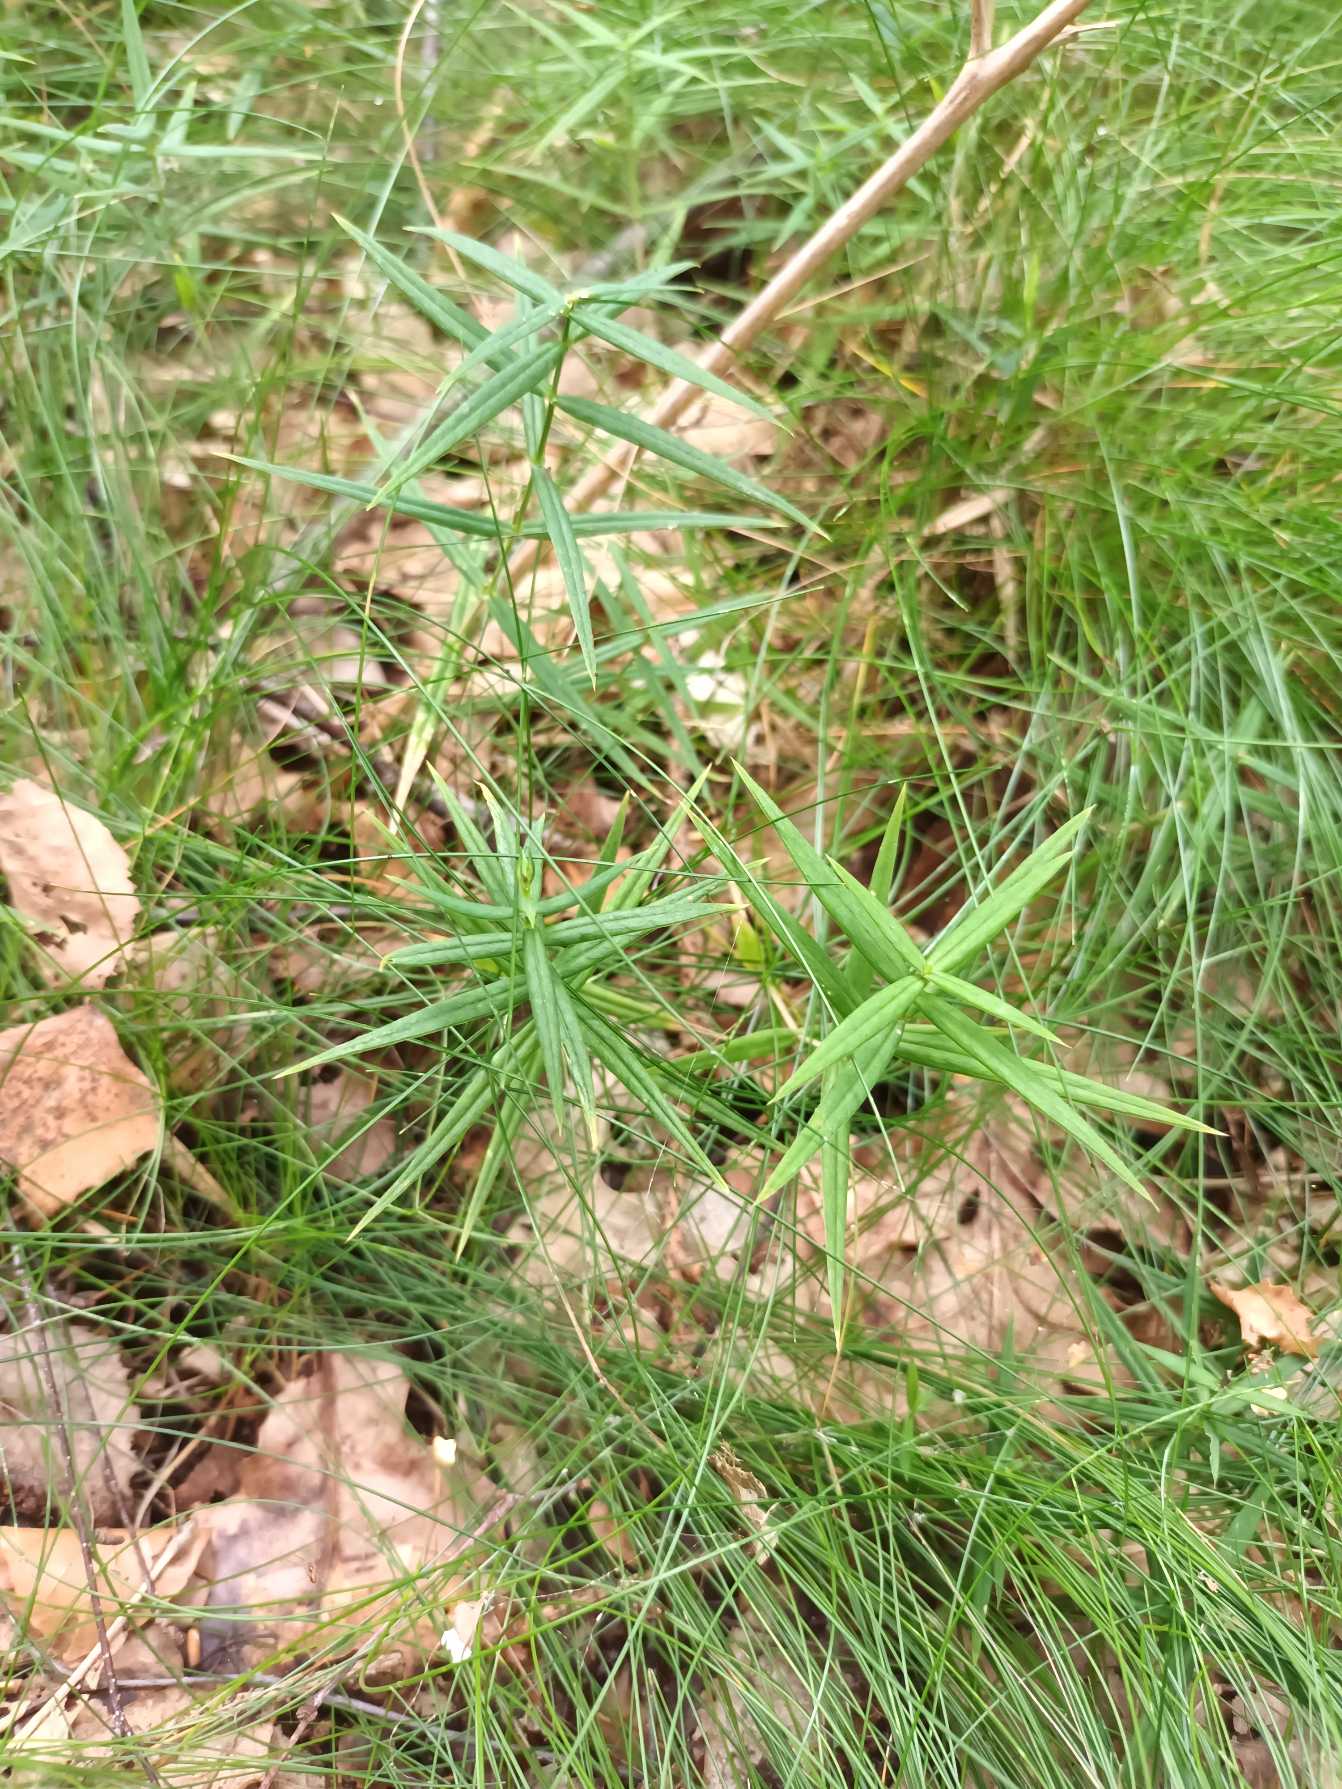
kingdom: Plantae
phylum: Tracheophyta
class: Magnoliopsida
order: Caryophyllales
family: Caryophyllaceae
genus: Rabelera
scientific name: Rabelera holostea
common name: Stor fladstjerne
